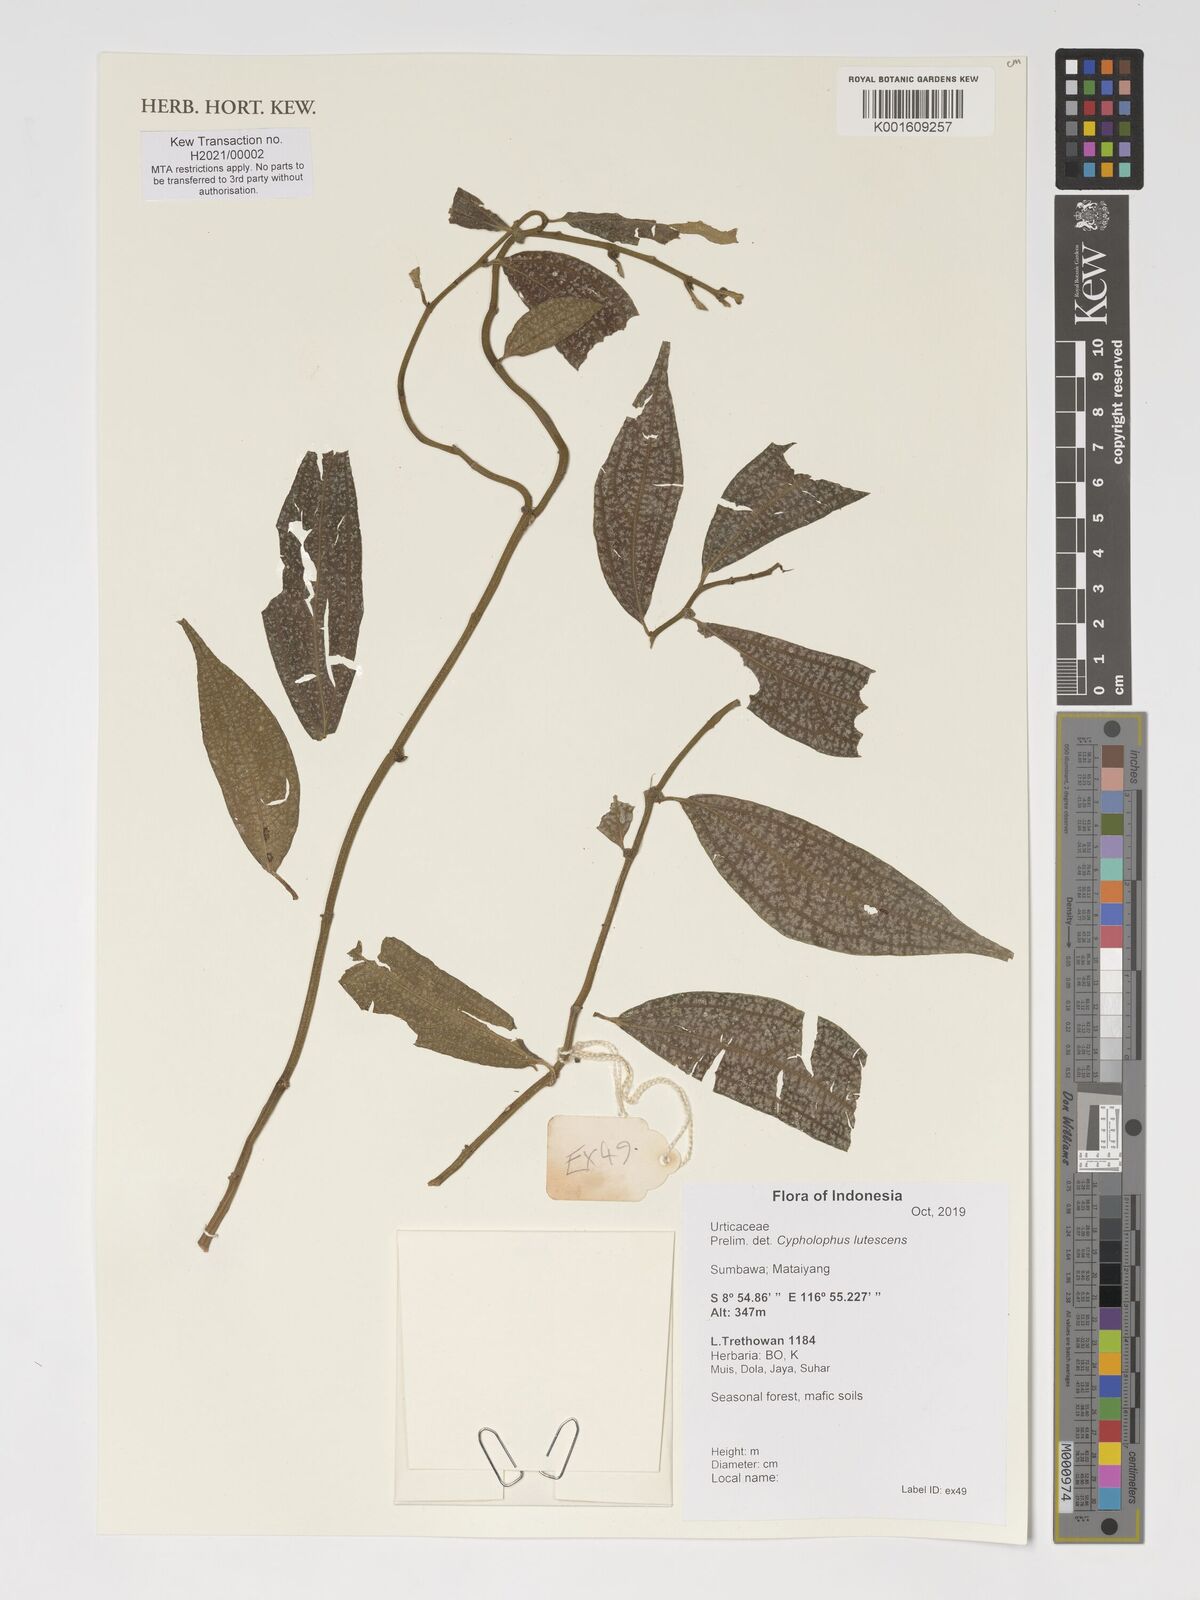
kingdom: Plantae
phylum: Tracheophyta
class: Magnoliopsida
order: Rosales
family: Urticaceae
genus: Cypholophus
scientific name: Cypholophus lutescens
